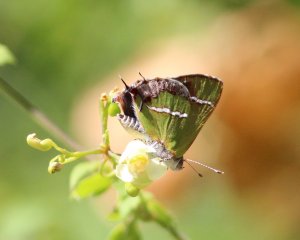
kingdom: Animalia
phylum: Arthropoda
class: Insecta
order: Lepidoptera
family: Lycaenidae
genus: Chlorostrymon
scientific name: Chlorostrymon simaethis
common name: Silver-banded Hairstreak
